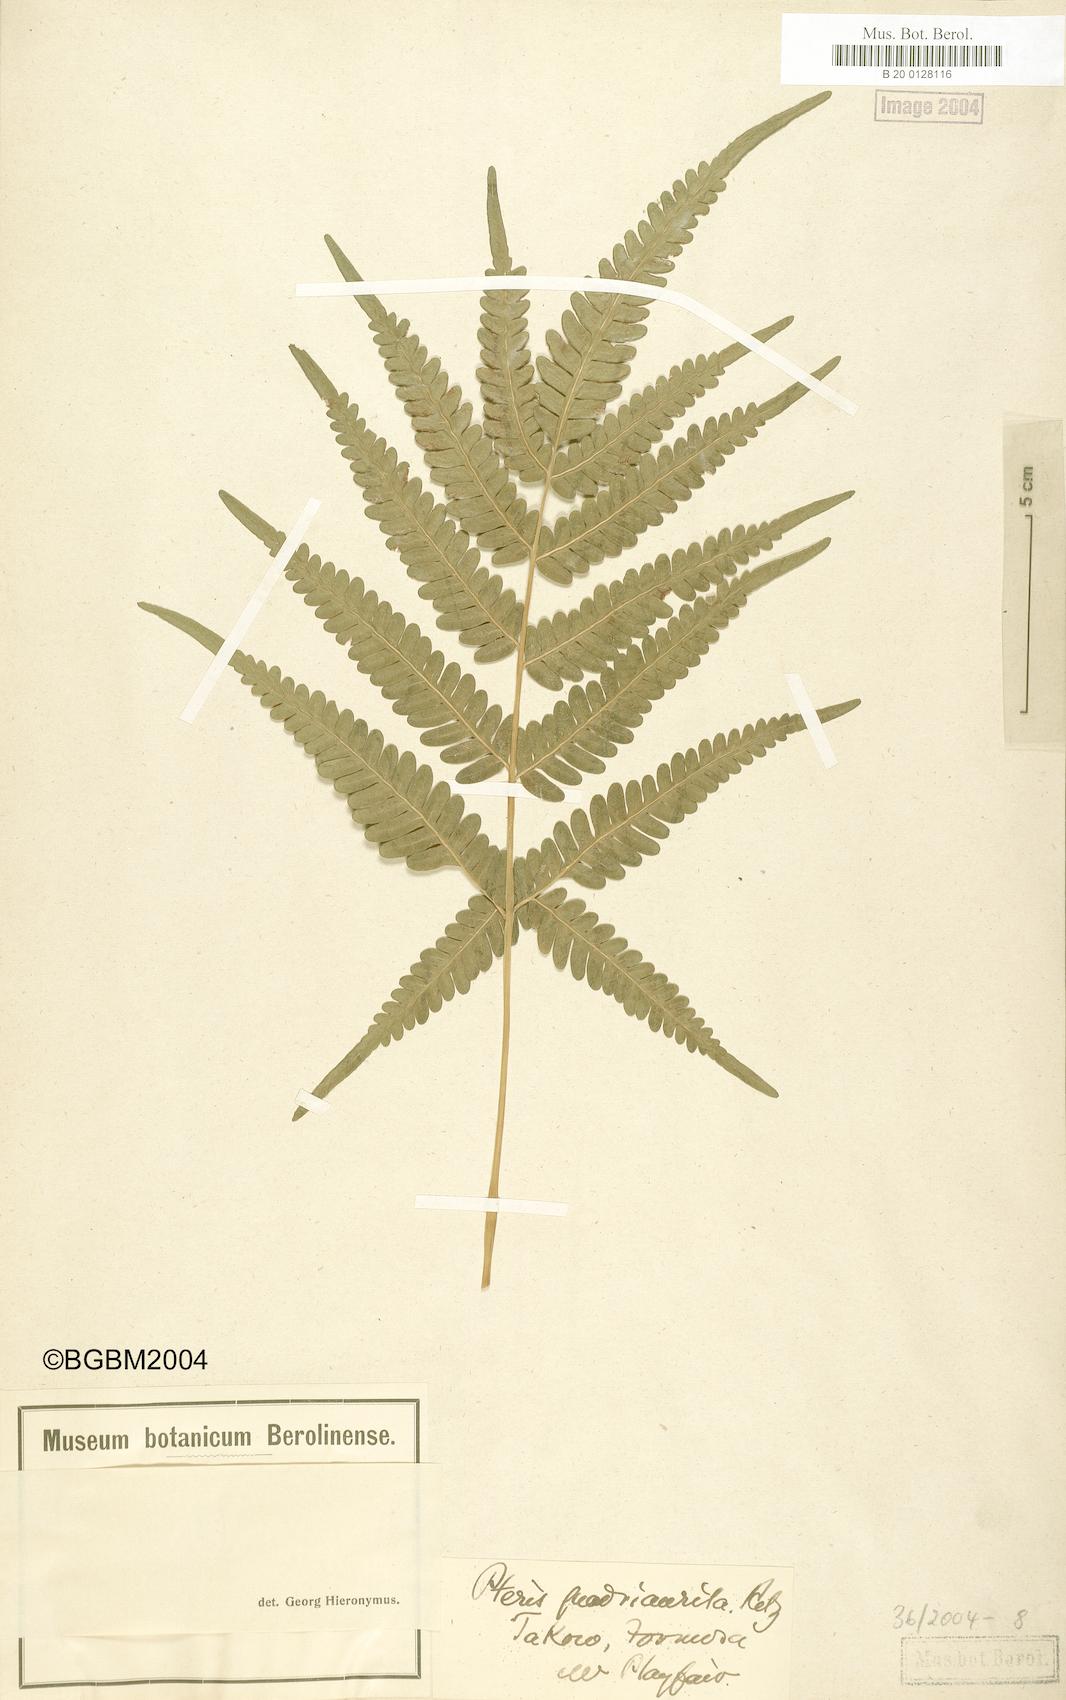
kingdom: Plantae
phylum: Tracheophyta
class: Polypodiopsida
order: Polypodiales
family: Pteridaceae
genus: Pteris
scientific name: Pteris fauriei
